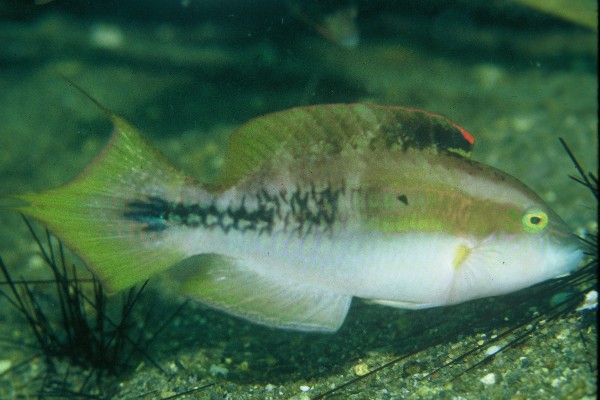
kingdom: Animalia
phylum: Chordata
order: Perciformes
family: Labridae
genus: Oxycheilinus
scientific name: Oxycheilinus bimaculatus
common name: Comettailed wrasse
